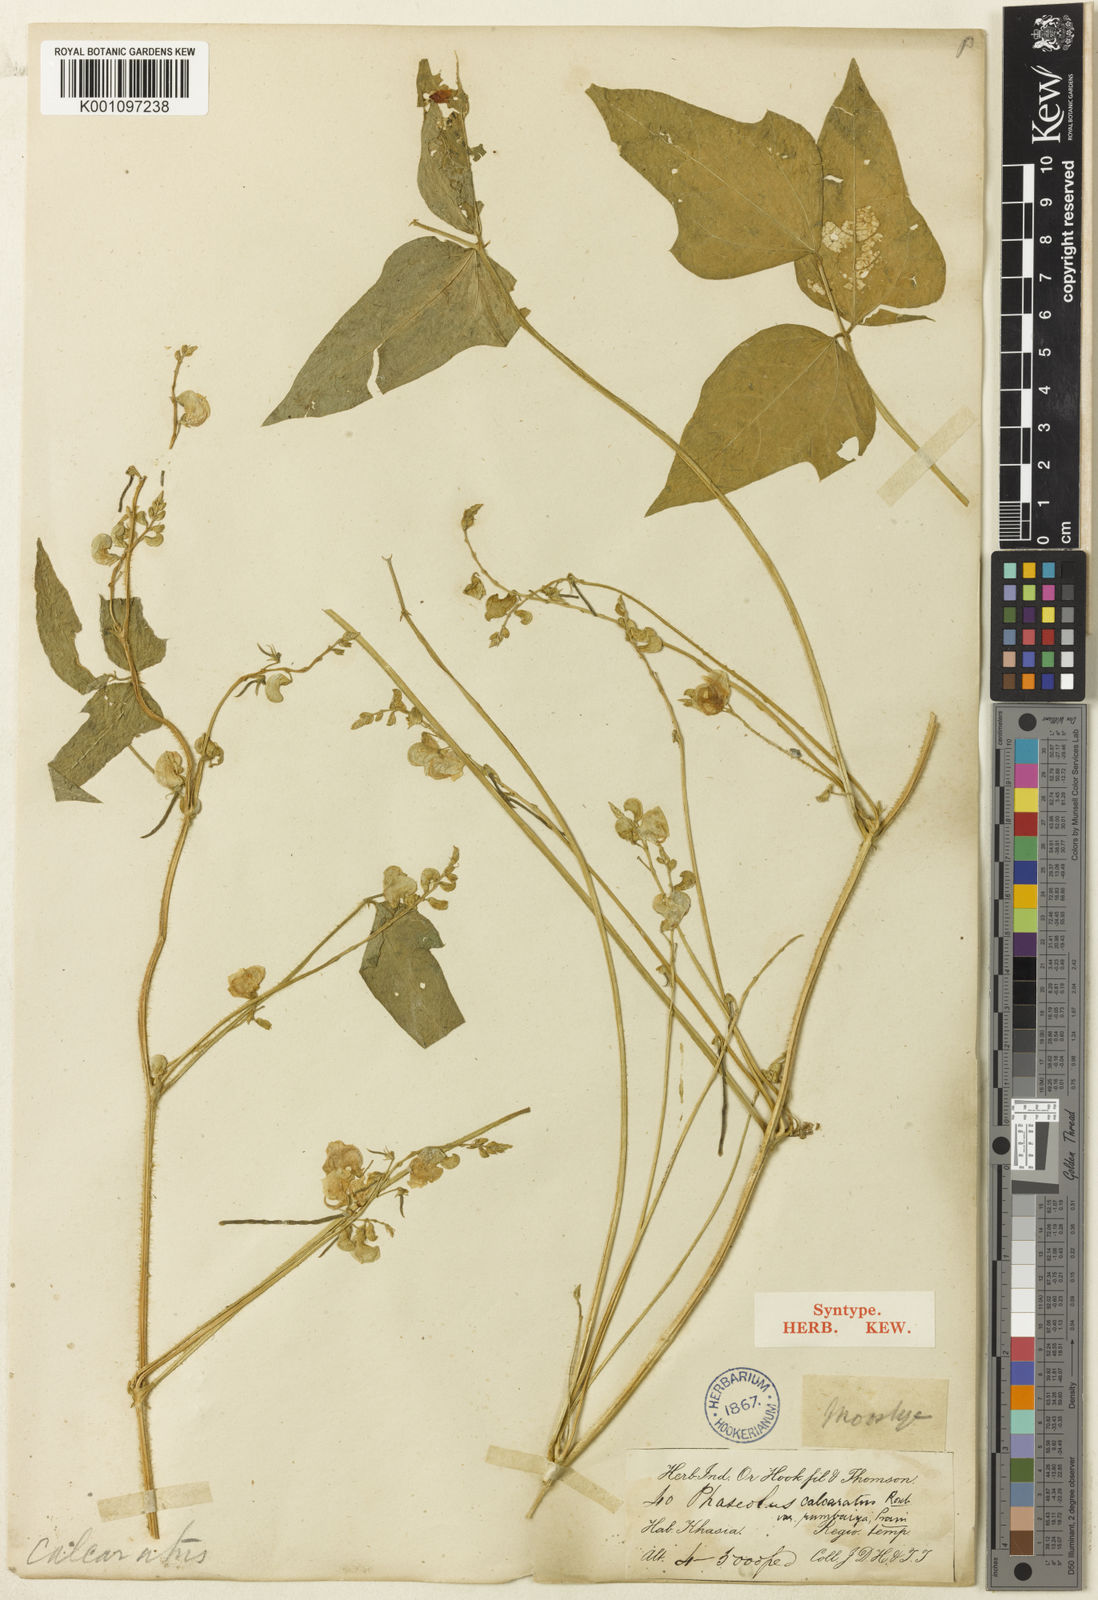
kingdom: Plantae
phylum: Tracheophyta
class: Magnoliopsida
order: Fabales
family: Fabaceae
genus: Vigna
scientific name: Vigna
